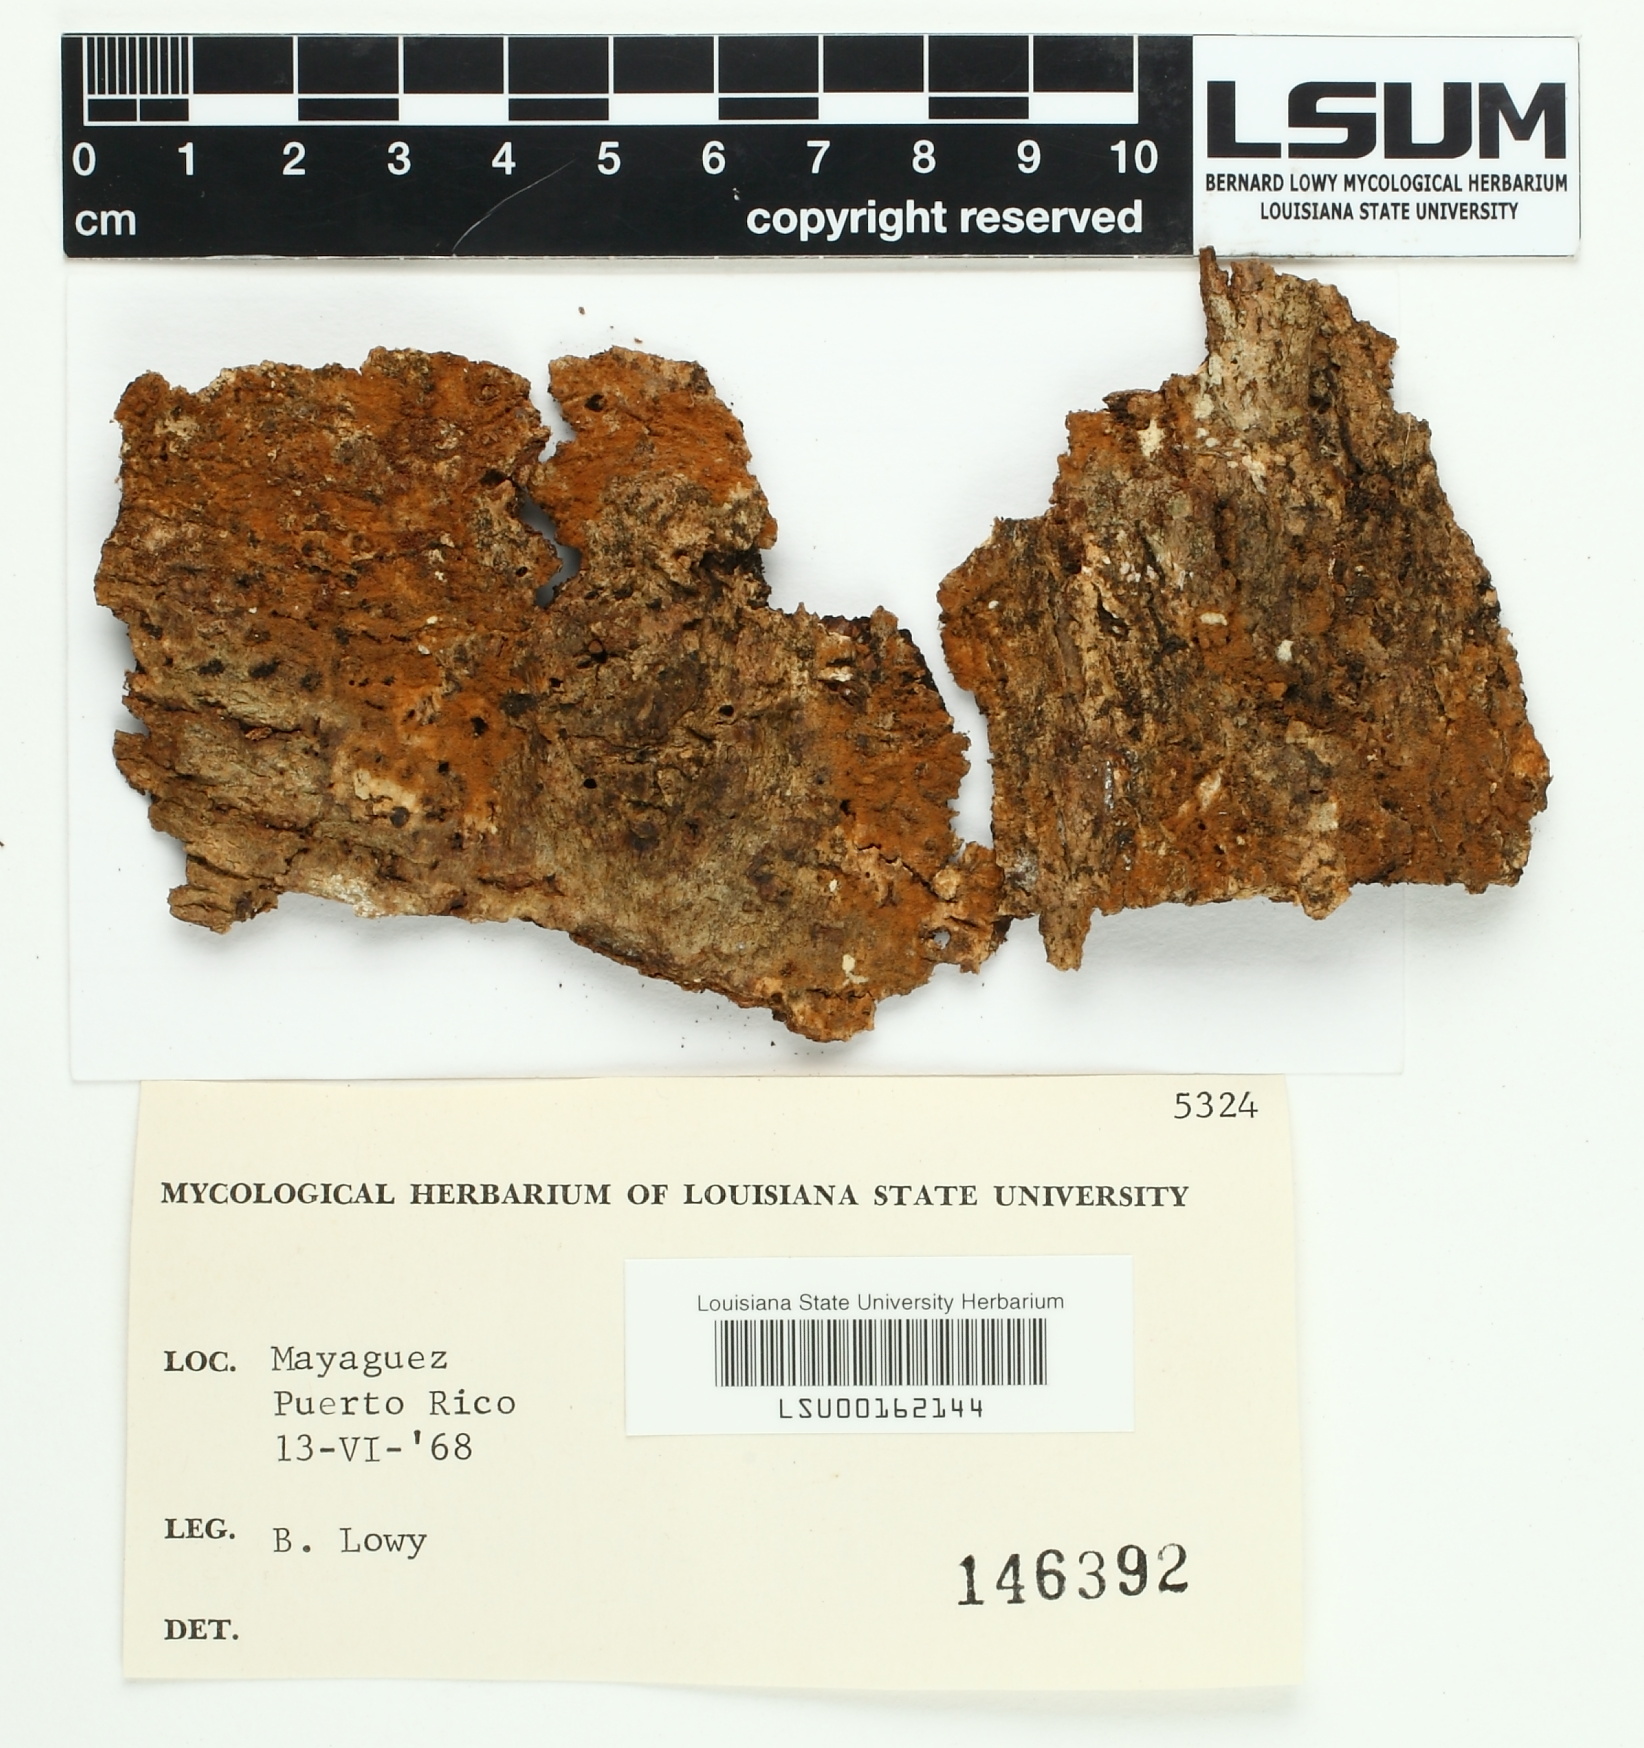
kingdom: Fungi
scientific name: Fungi
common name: Fungi
